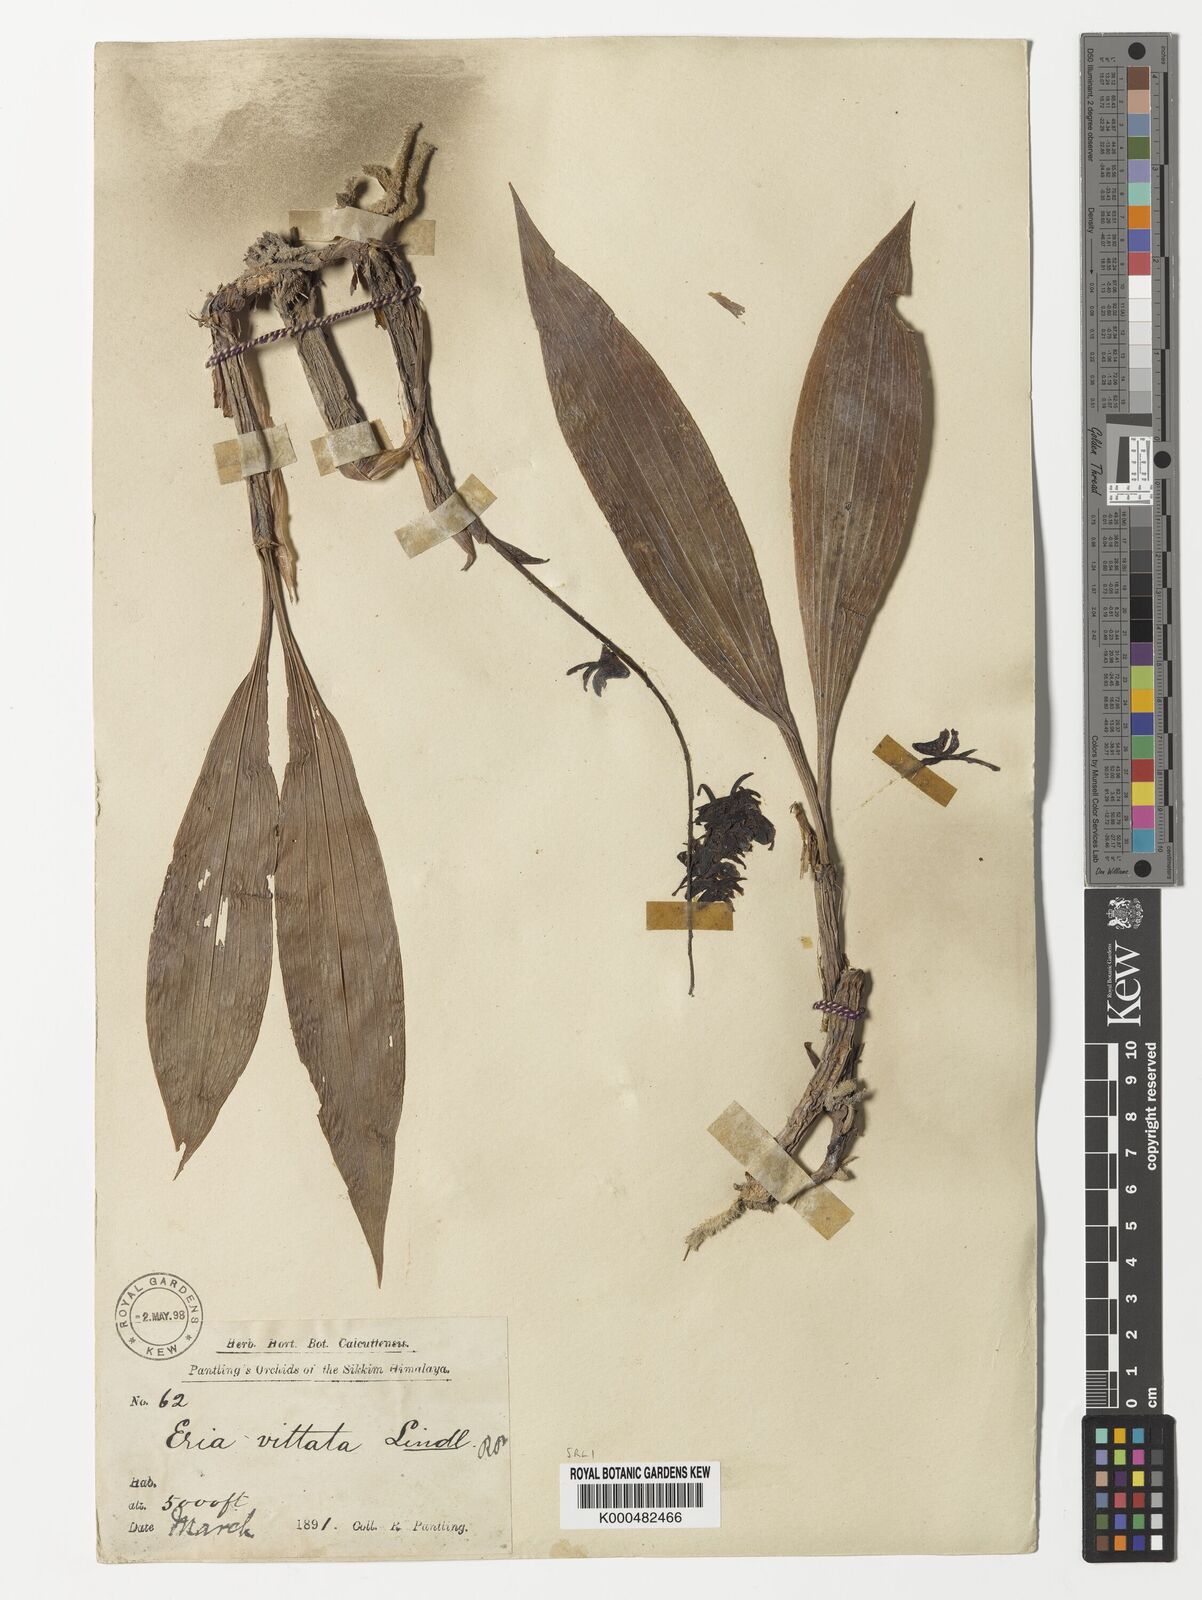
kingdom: Plantae
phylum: Tracheophyta
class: Liliopsida
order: Asparagales
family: Orchidaceae
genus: Eria
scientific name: Eria vittata
